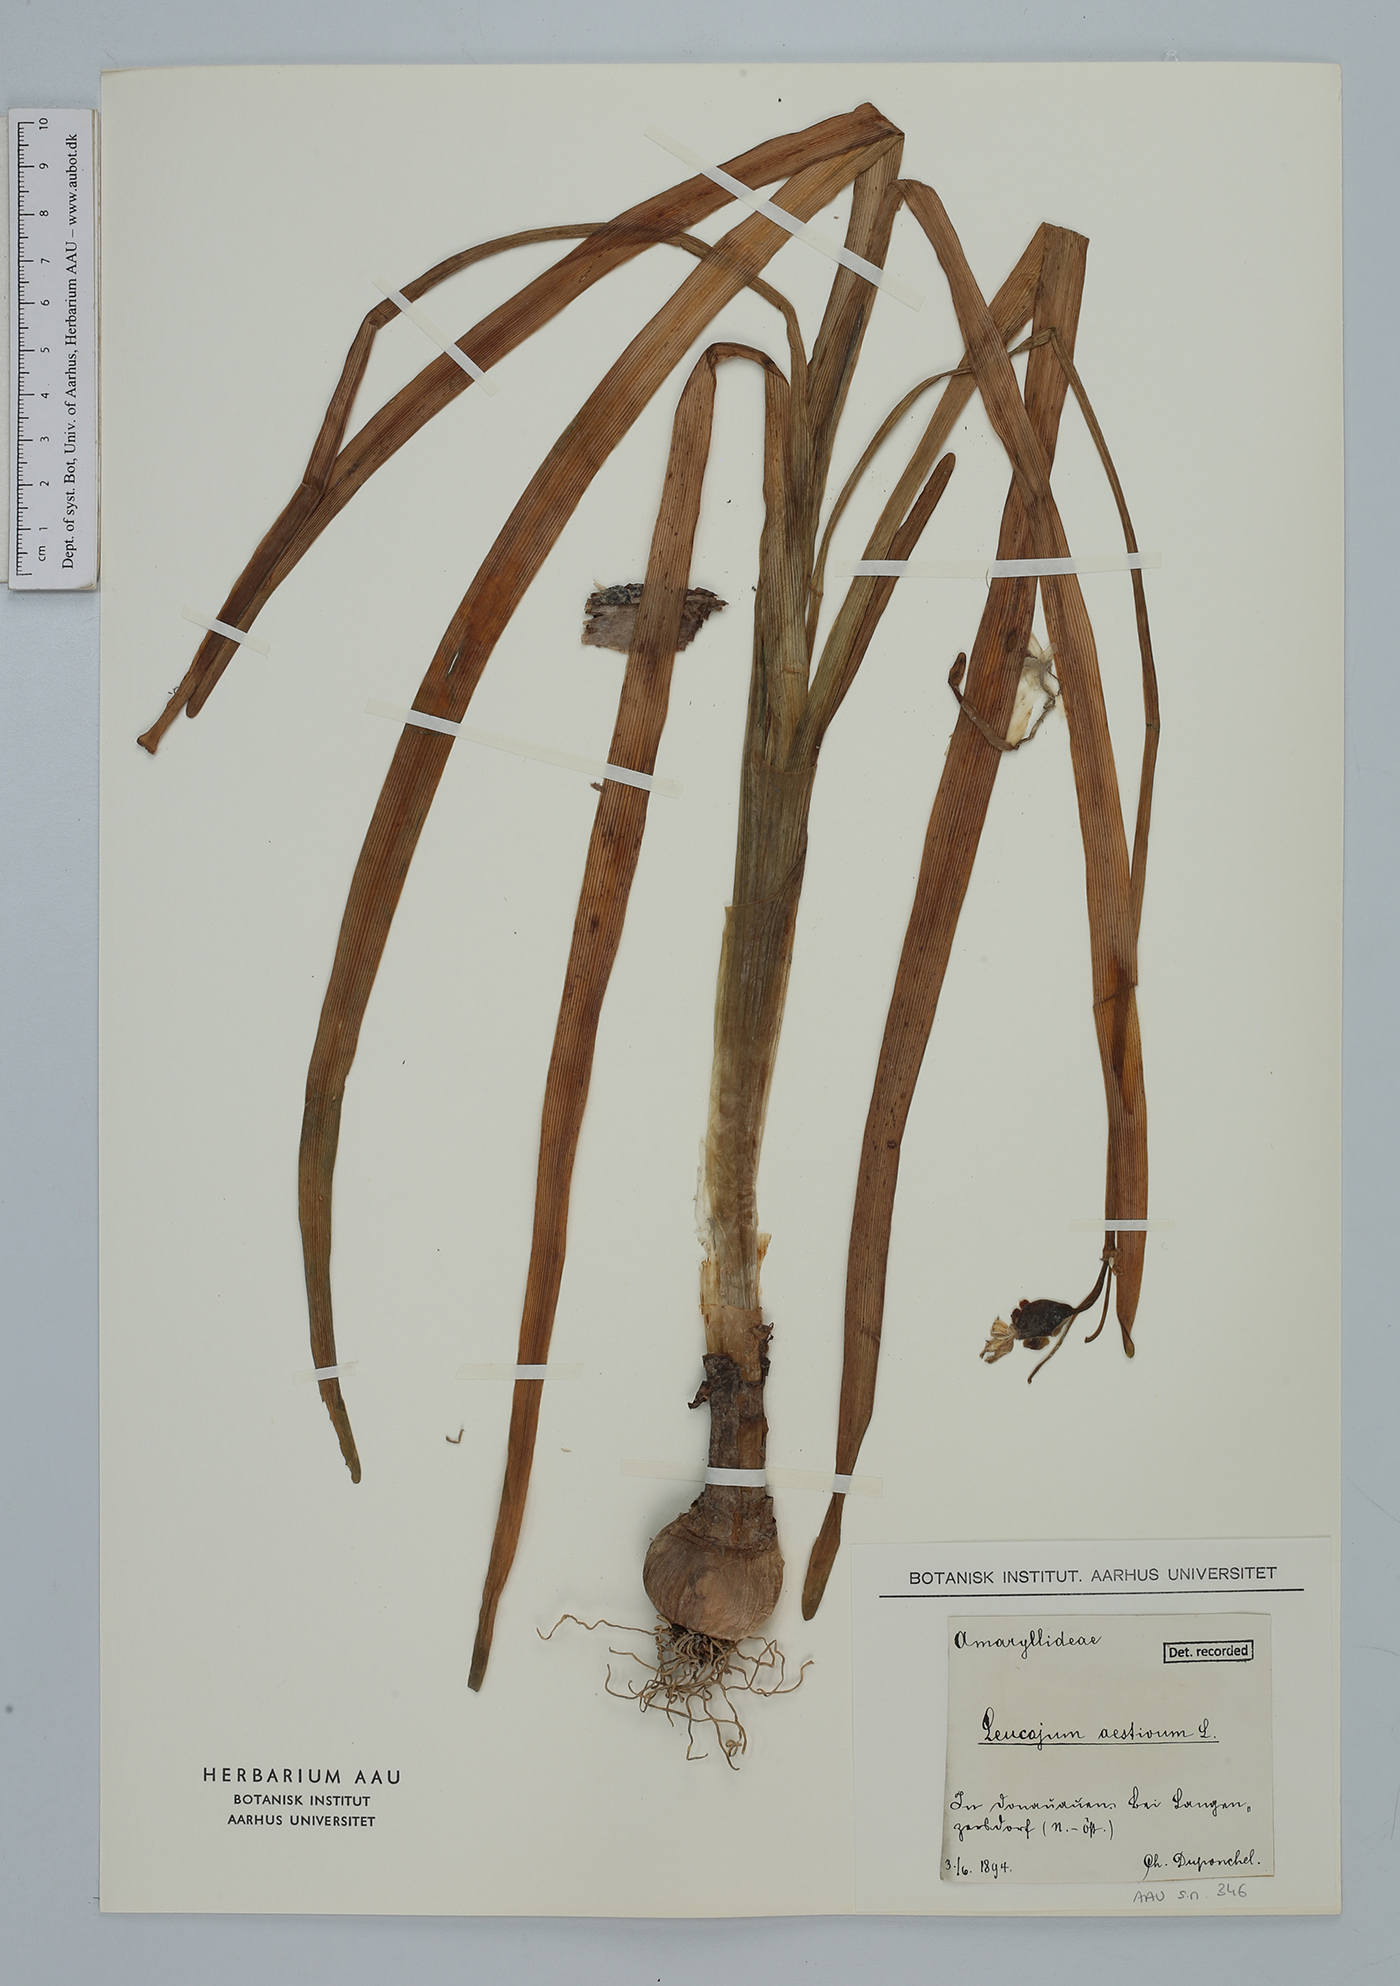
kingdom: Plantae
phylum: Tracheophyta
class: Liliopsida
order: Asparagales
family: Amaryllidaceae
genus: Leucojum
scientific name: Leucojum aestivum
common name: Summer snowflake
